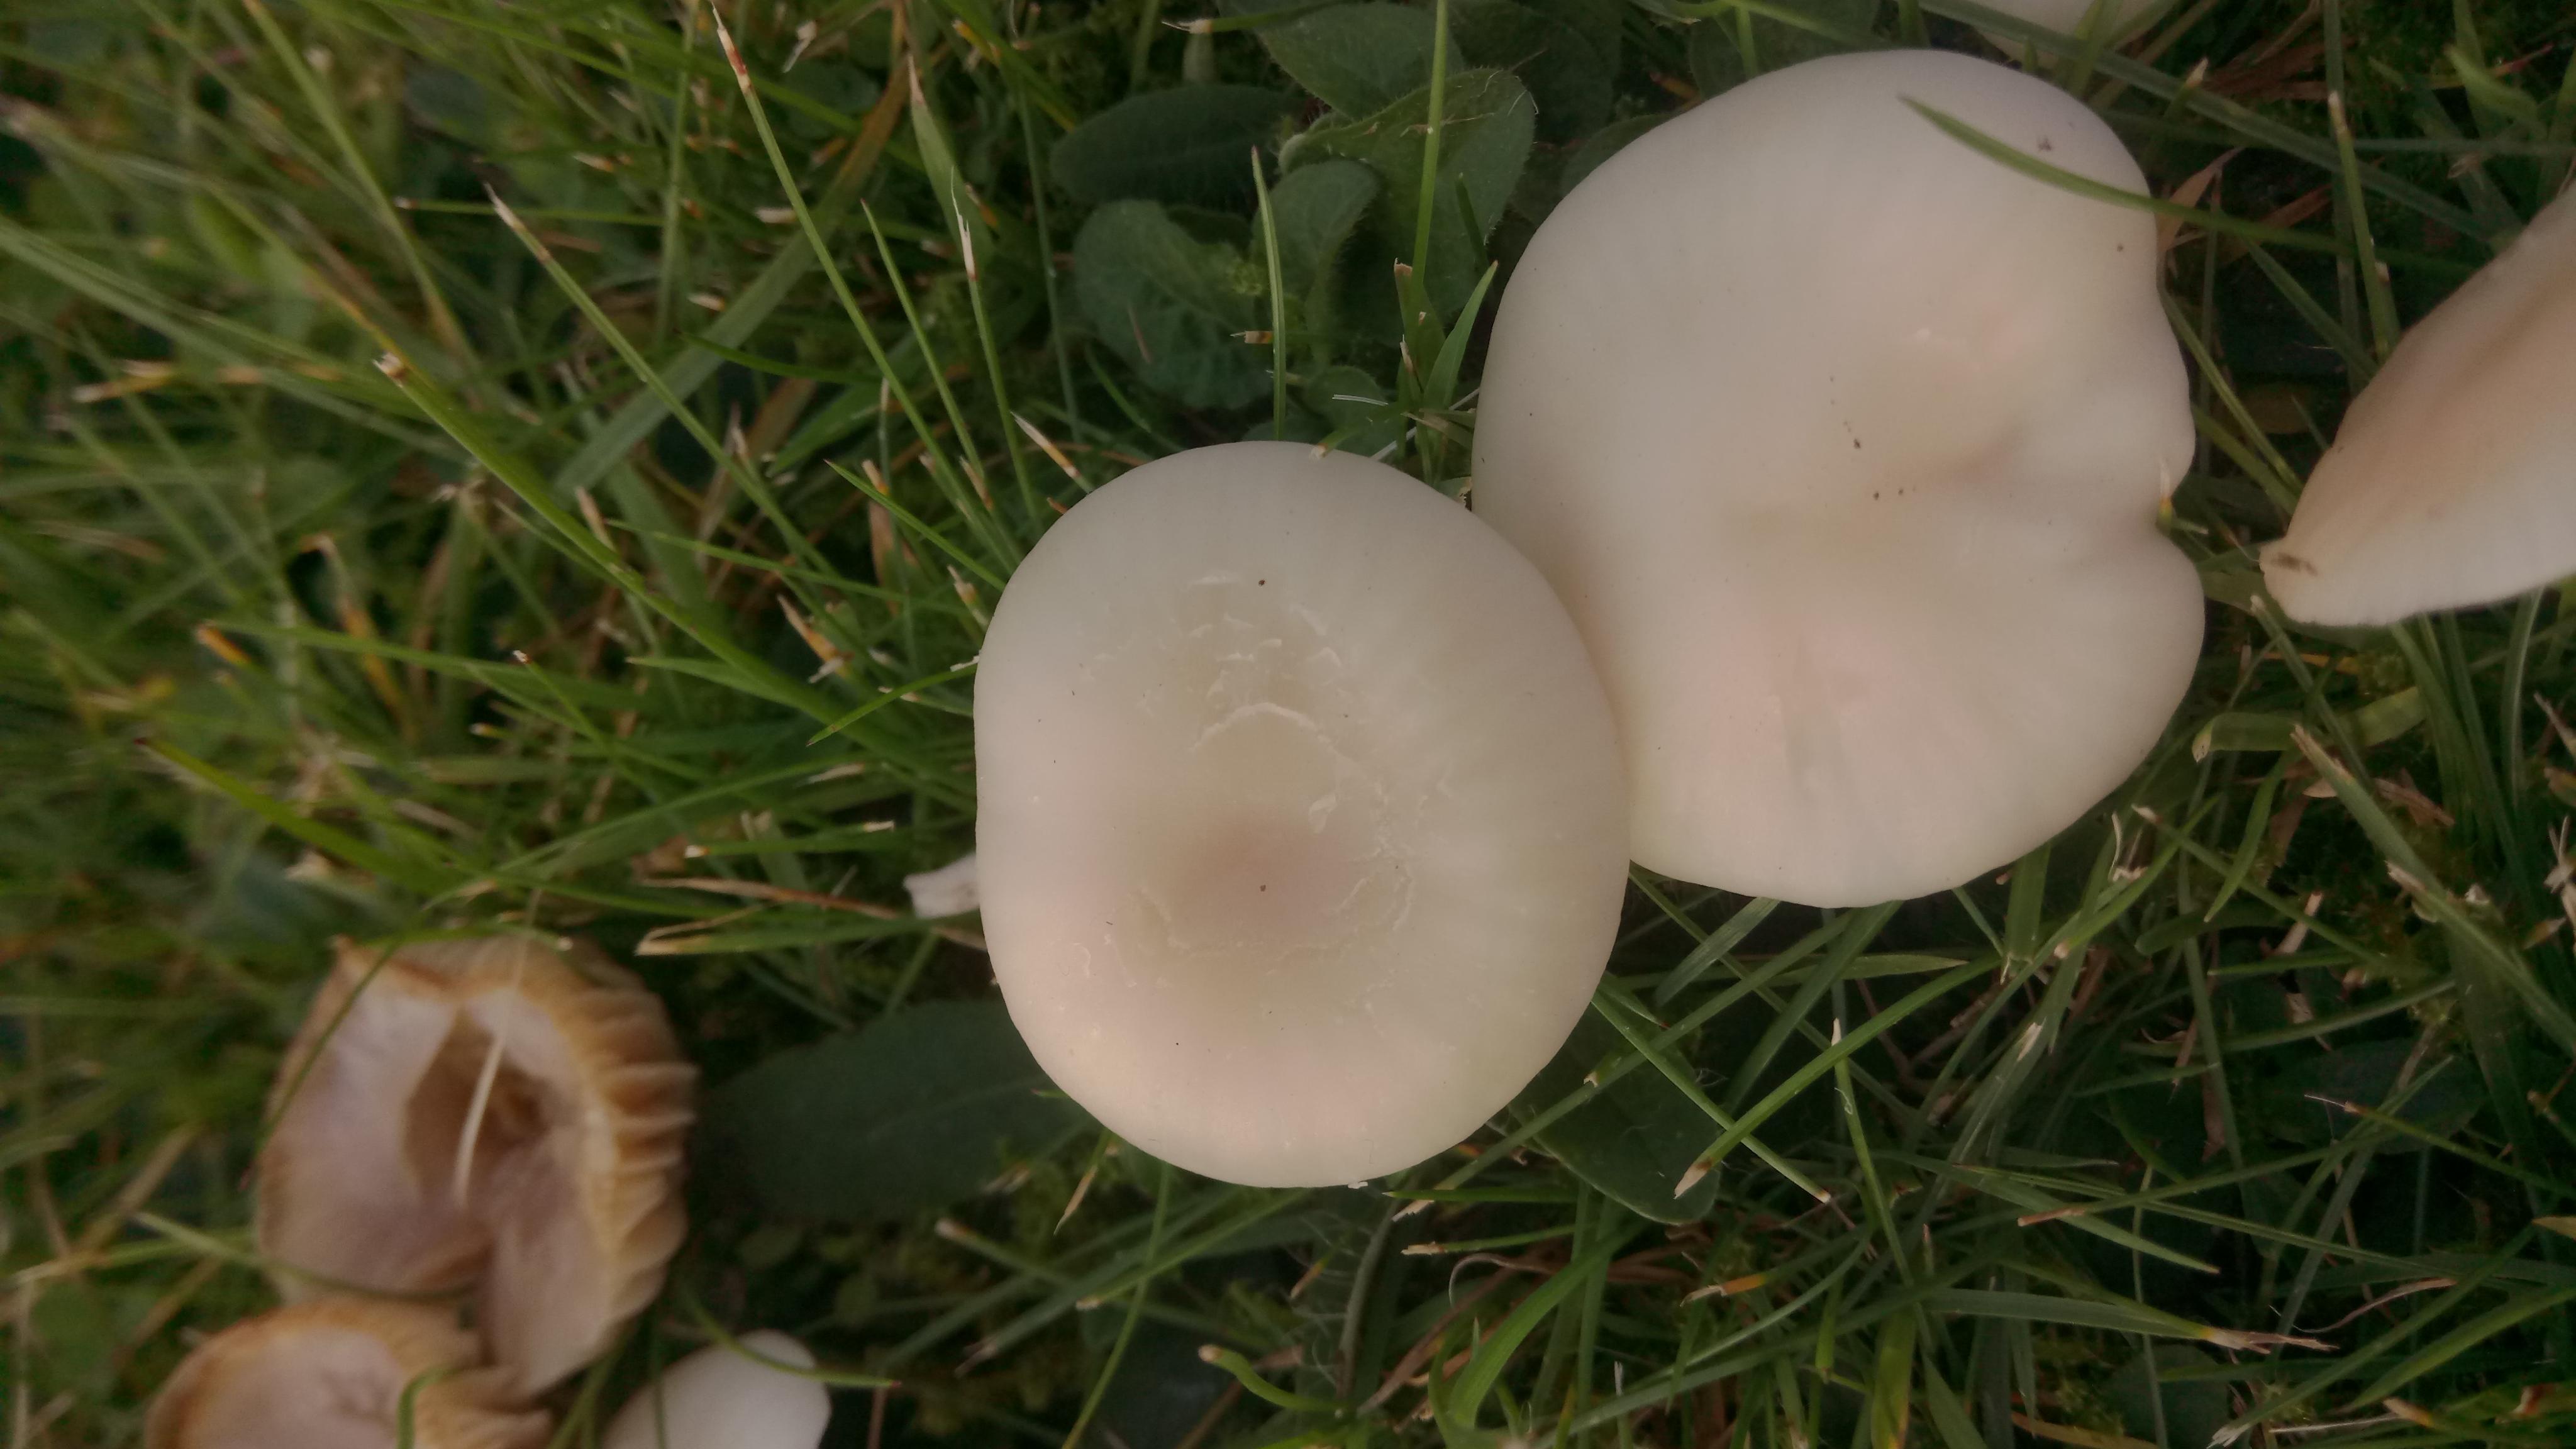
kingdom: Fungi
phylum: Basidiomycota
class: Agaricomycetes
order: Agaricales
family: Hygrophoraceae
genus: Cuphophyllus
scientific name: Cuphophyllus
